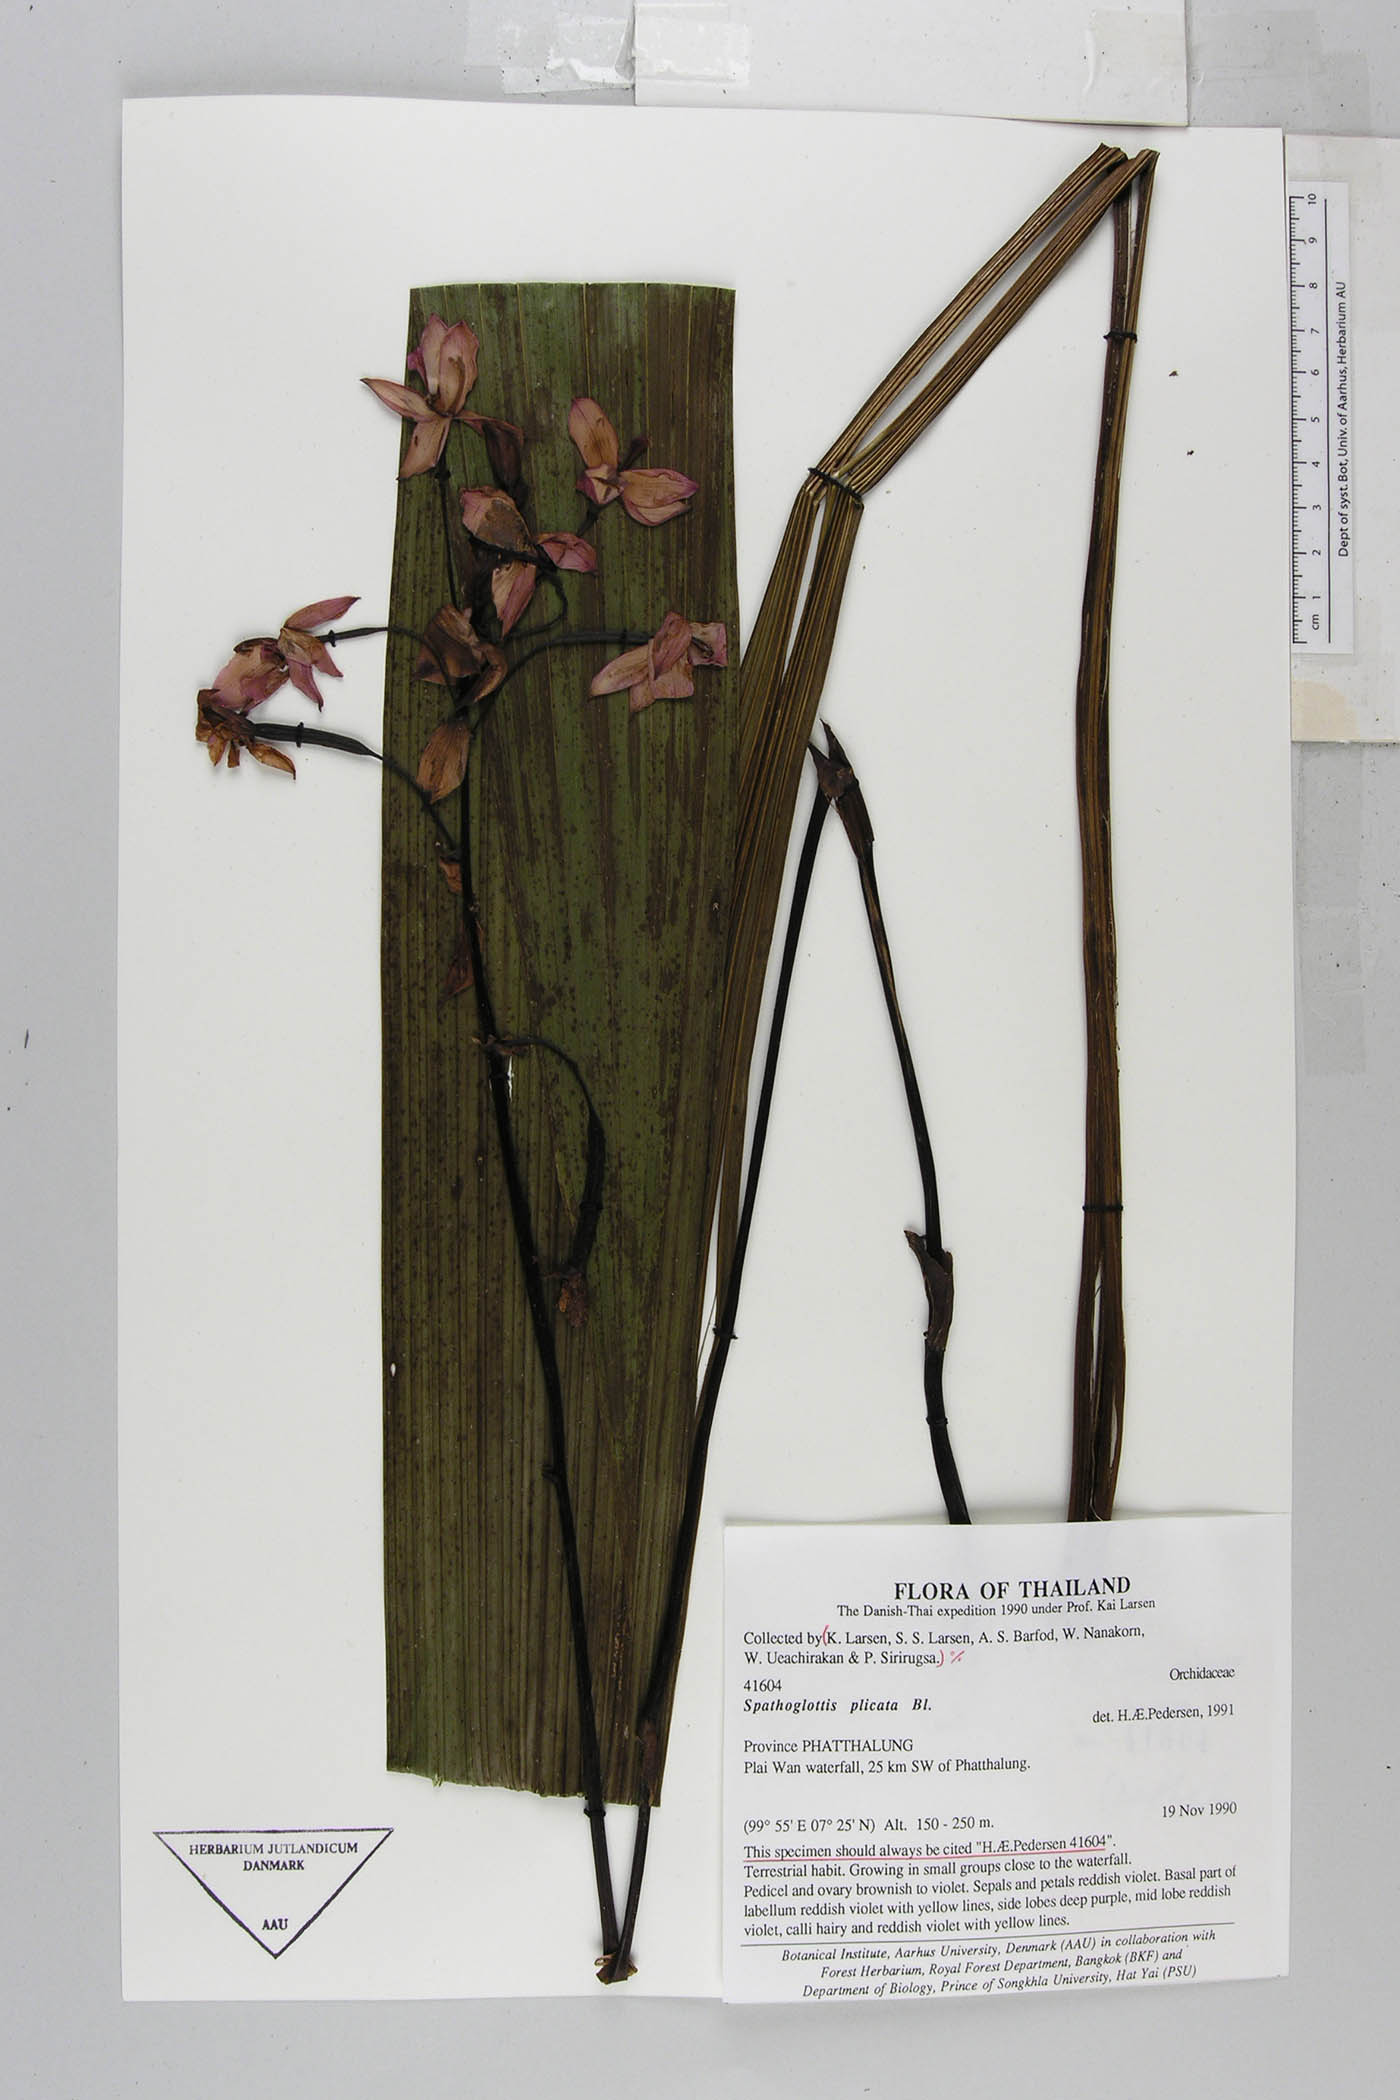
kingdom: Plantae
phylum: Tracheophyta
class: Liliopsida
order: Asparagales
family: Orchidaceae
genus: Spathoglottis
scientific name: Spathoglottis plicata
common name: Philippine ground orchid
